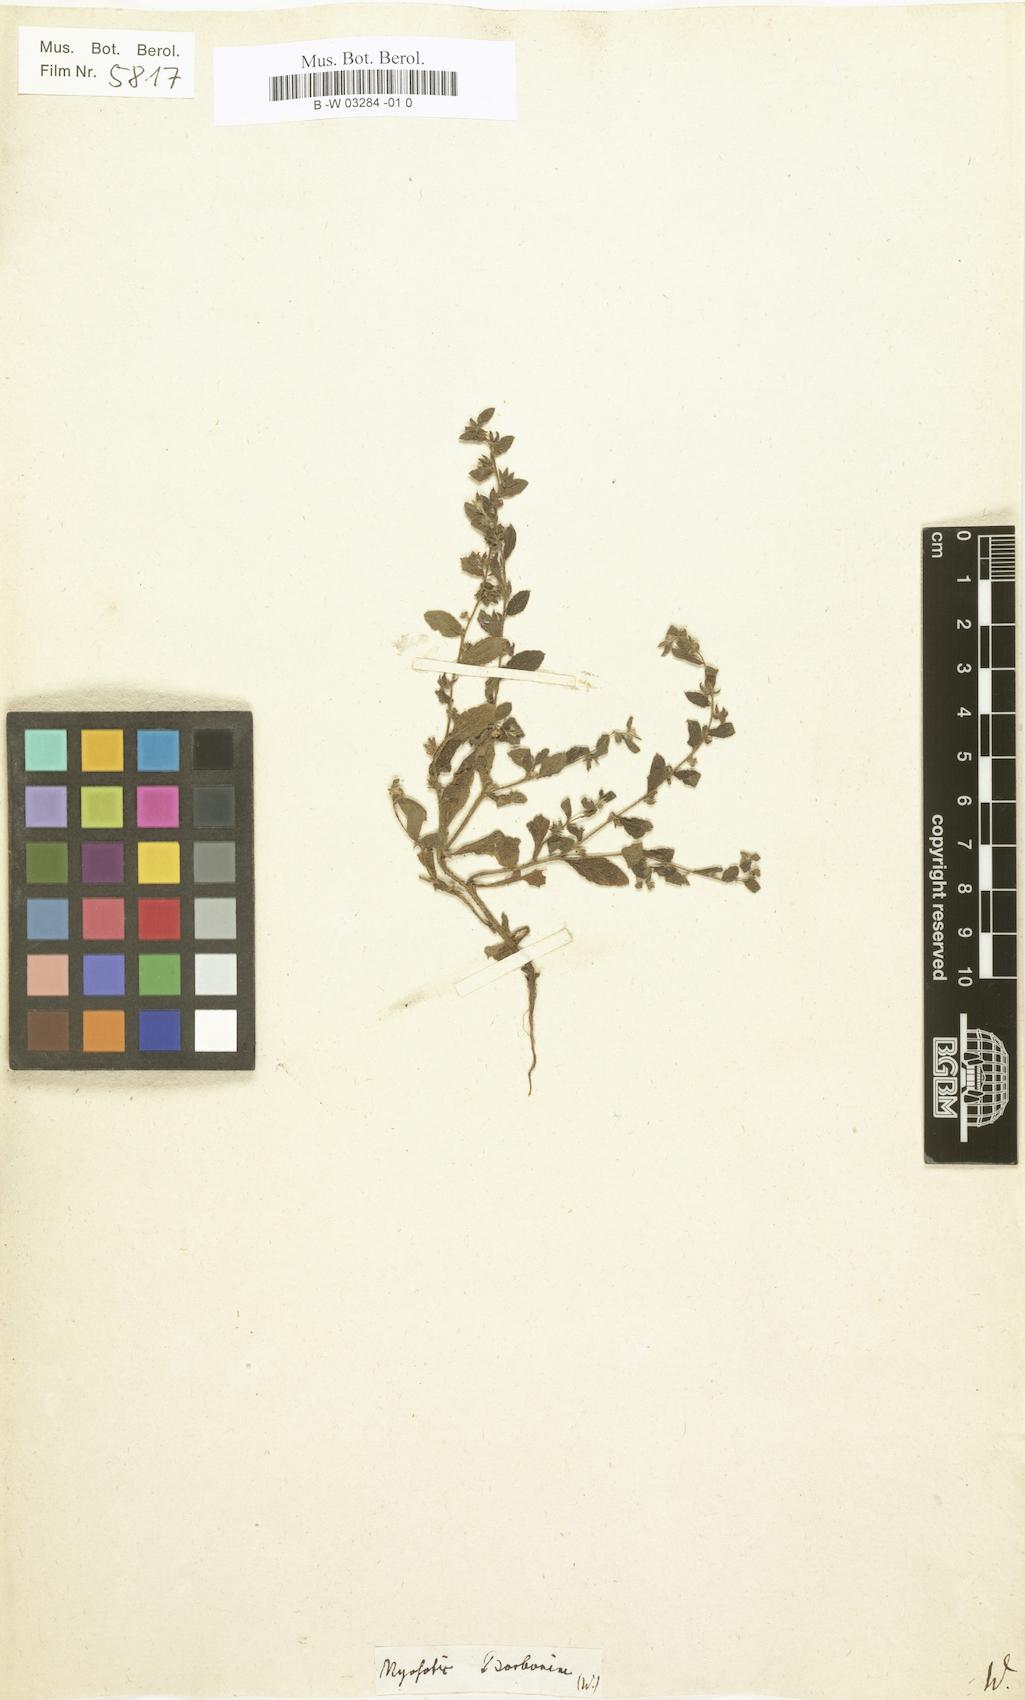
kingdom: Plantae
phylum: Tracheophyta
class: Magnoliopsida
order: Boraginales
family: Boraginaceae
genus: Cynoglossum
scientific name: Cynoglossum borbonicum
